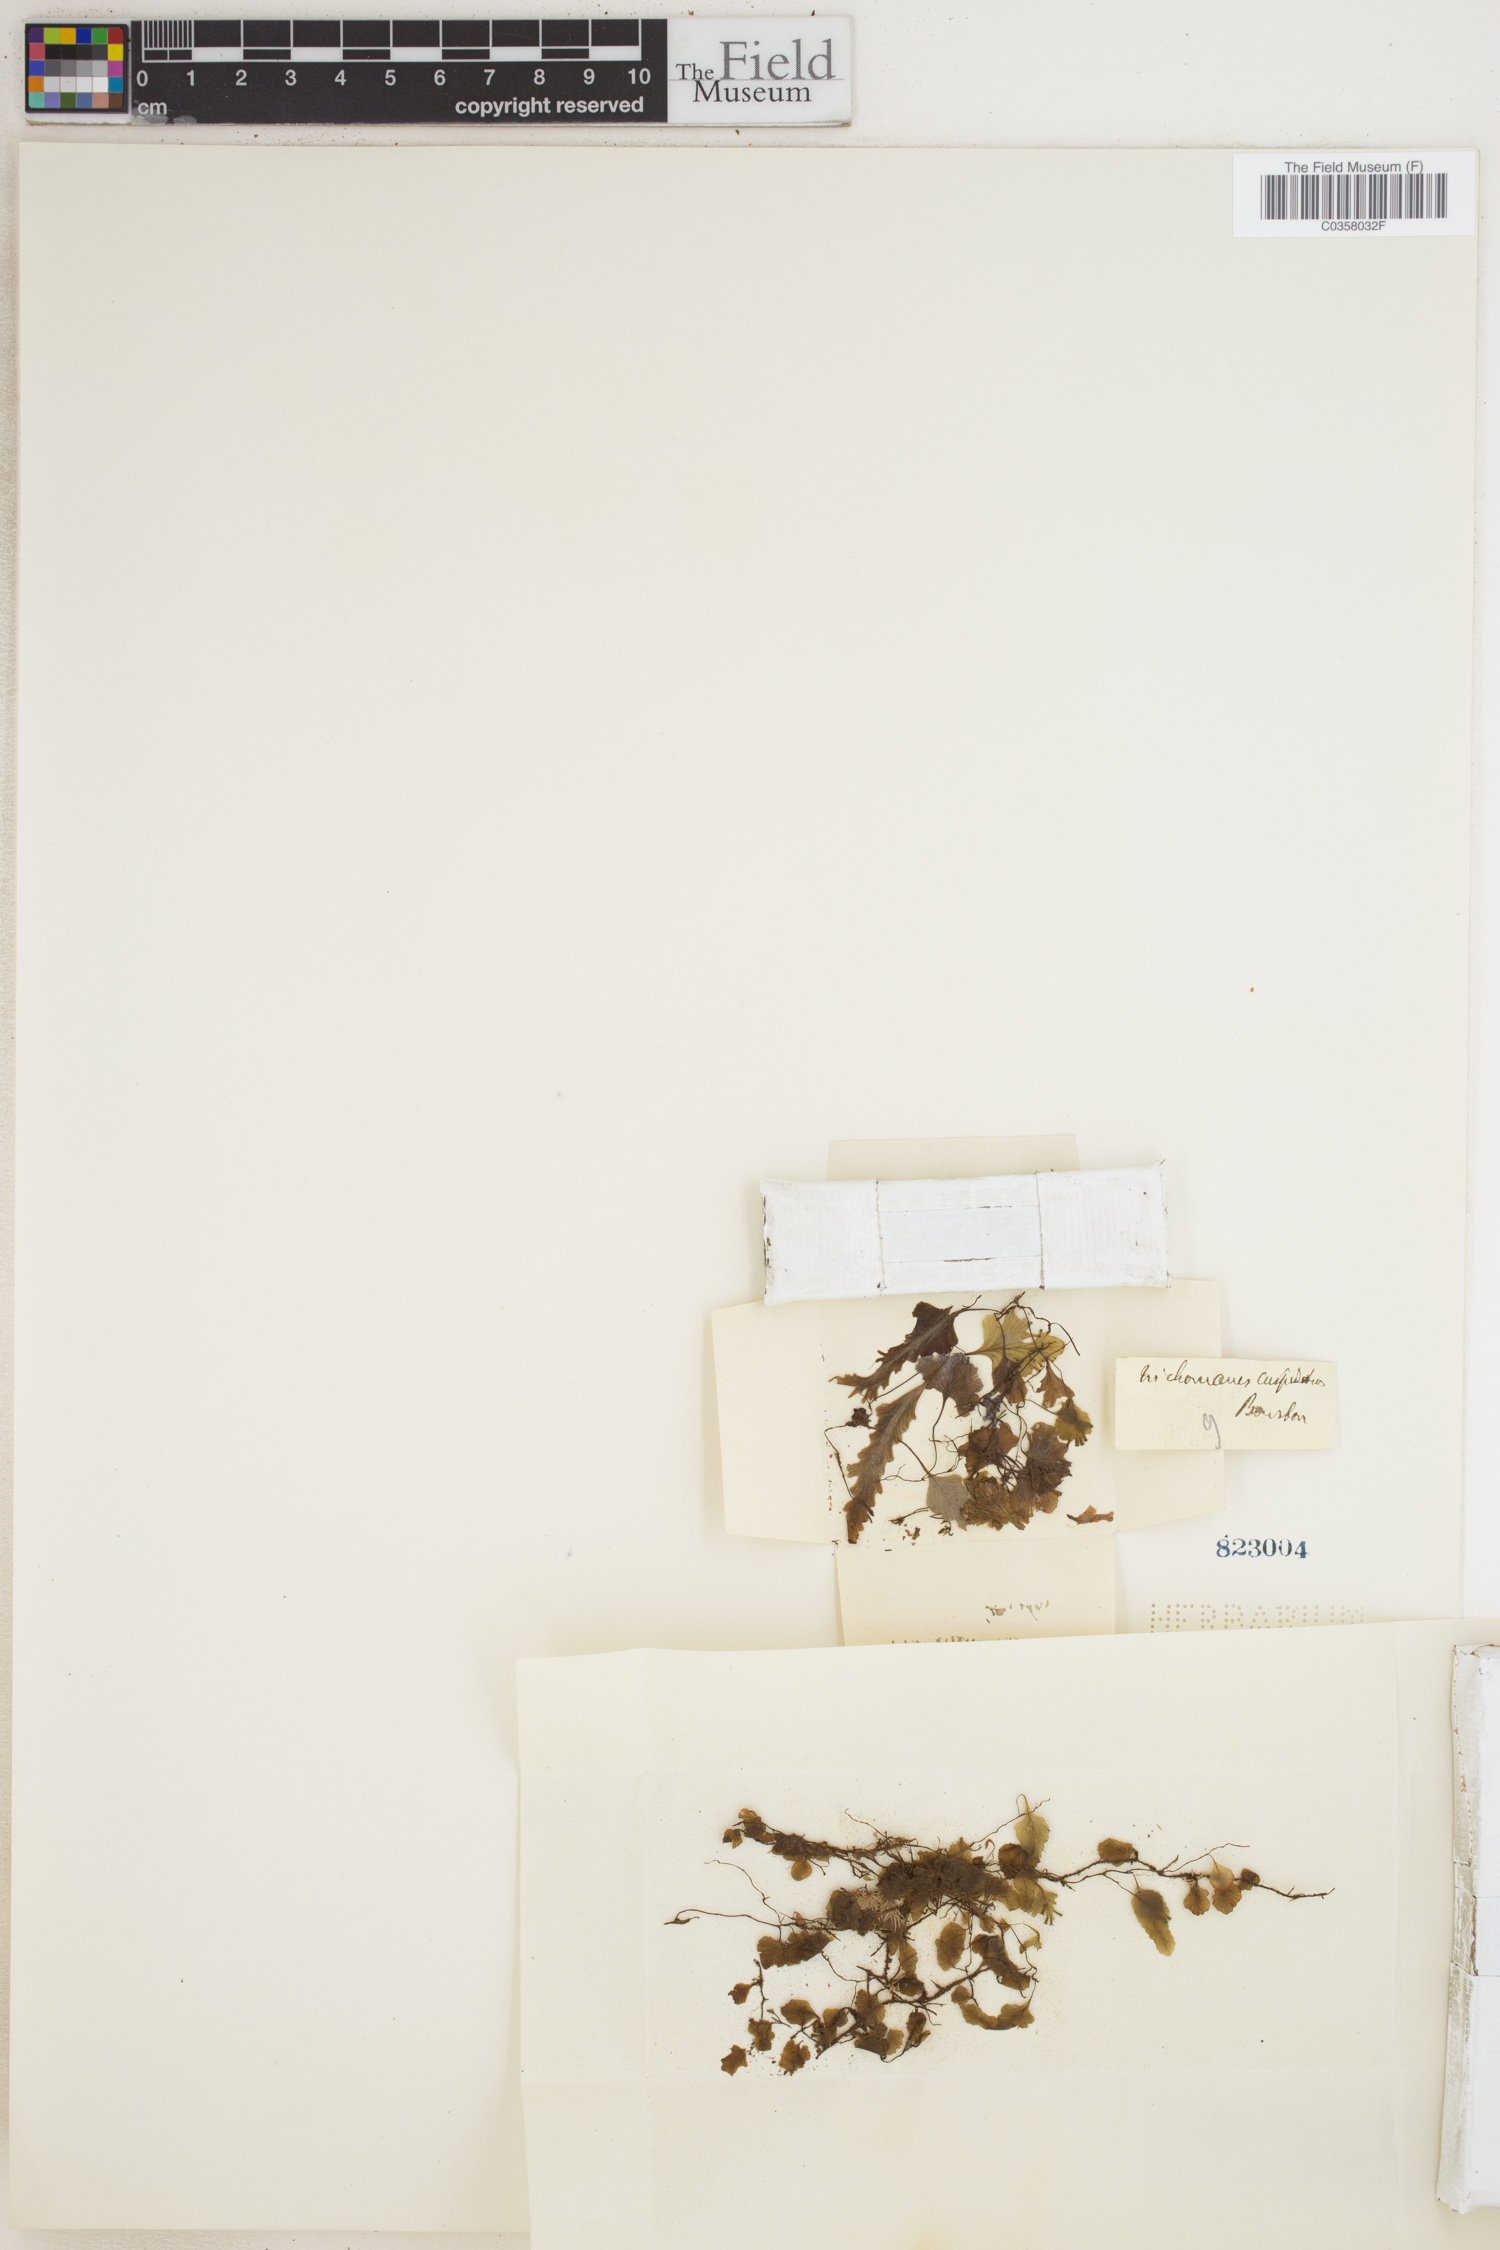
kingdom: Plantae
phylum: Tracheophyta
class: Polypodiopsida
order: Hymenophyllales
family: Hymenophyllaceae
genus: Didymoglossum
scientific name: Didymoglossum cuspidatum
